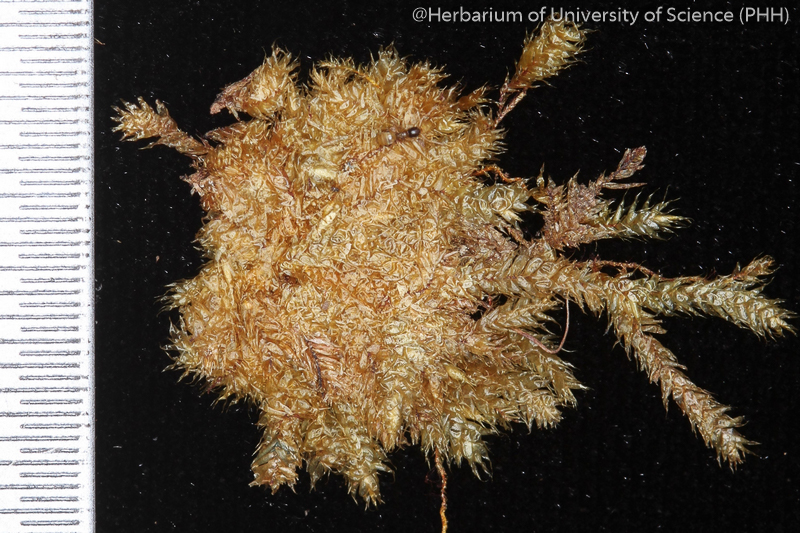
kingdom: Plantae
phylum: Bryophyta
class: Bryopsida
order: Ptychomniales
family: Ptychomniaceae
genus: Glyphothecium
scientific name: Glyphothecium sciuroides
